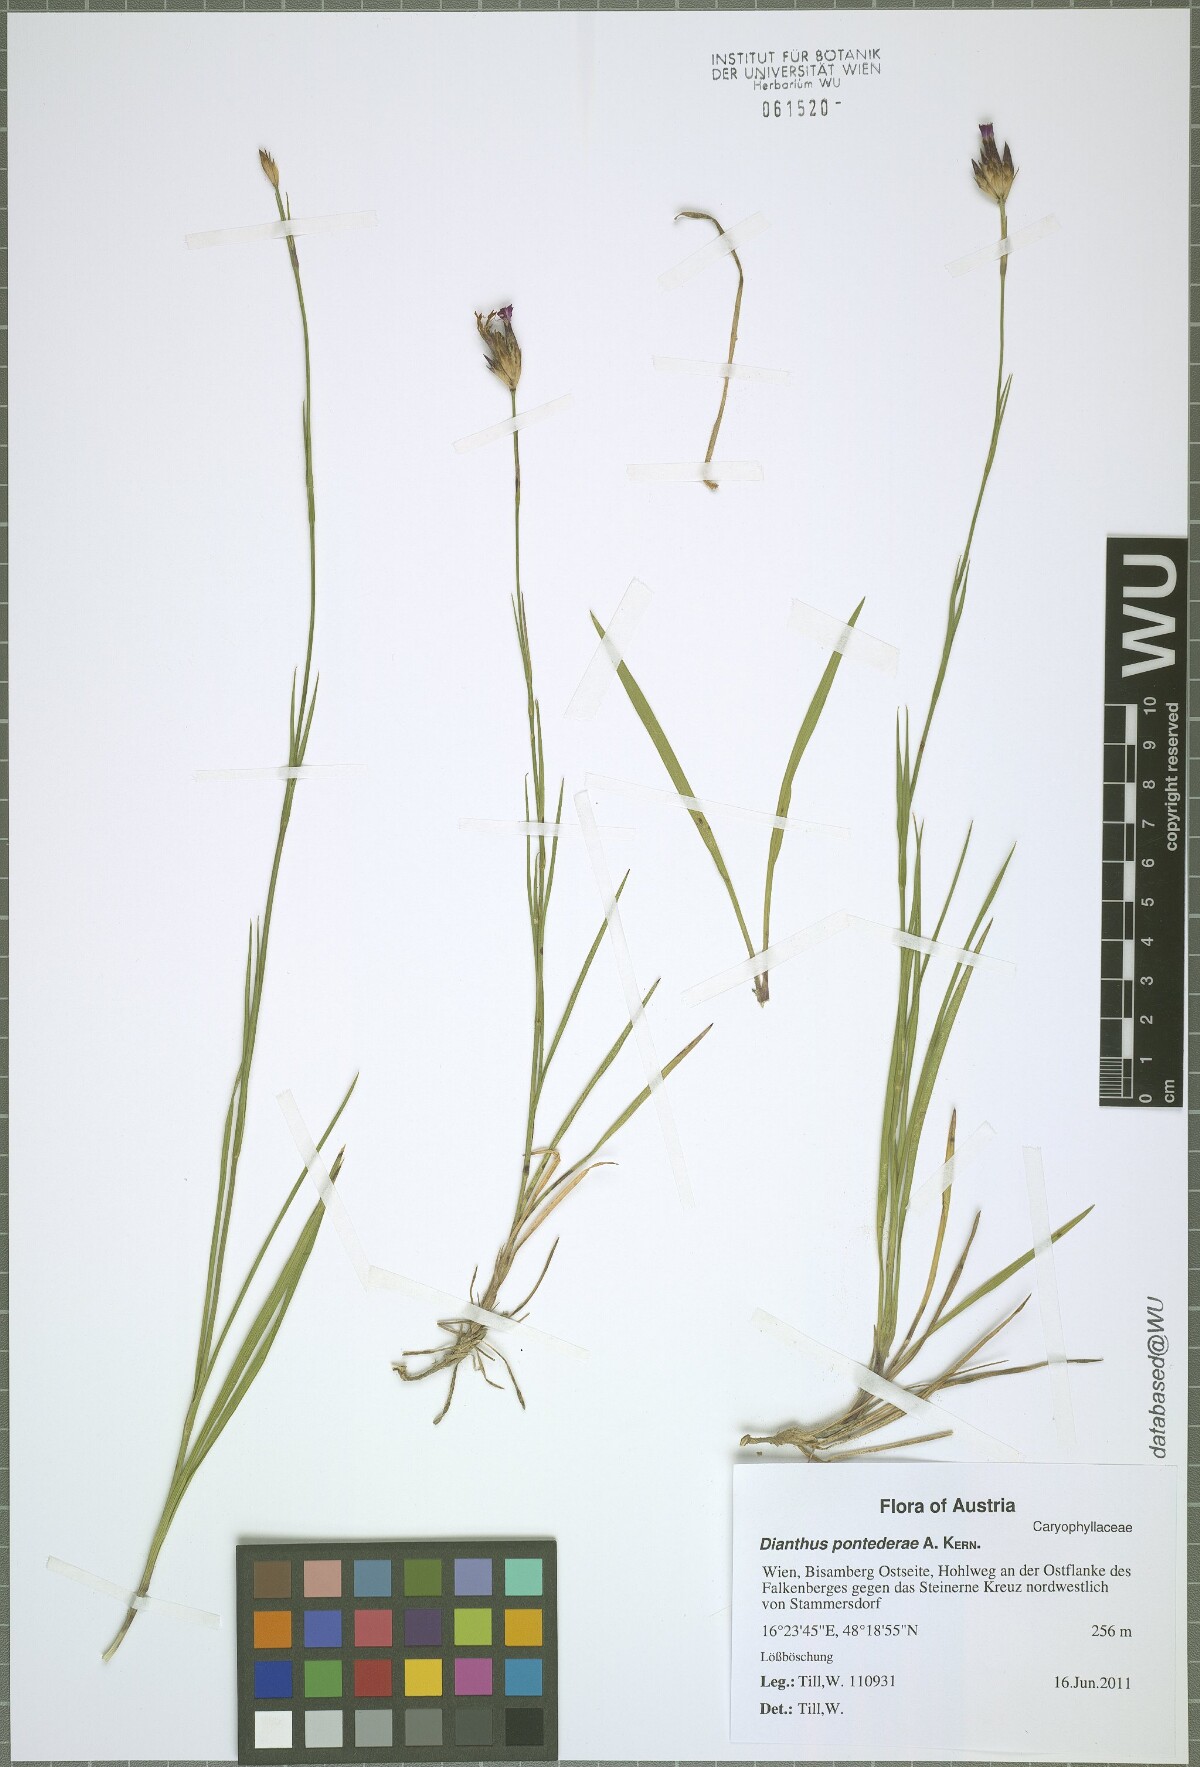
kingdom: Plantae
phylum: Tracheophyta
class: Magnoliopsida
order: Caryophyllales
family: Caryophyllaceae
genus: Dianthus
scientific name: Dianthus pontederae
